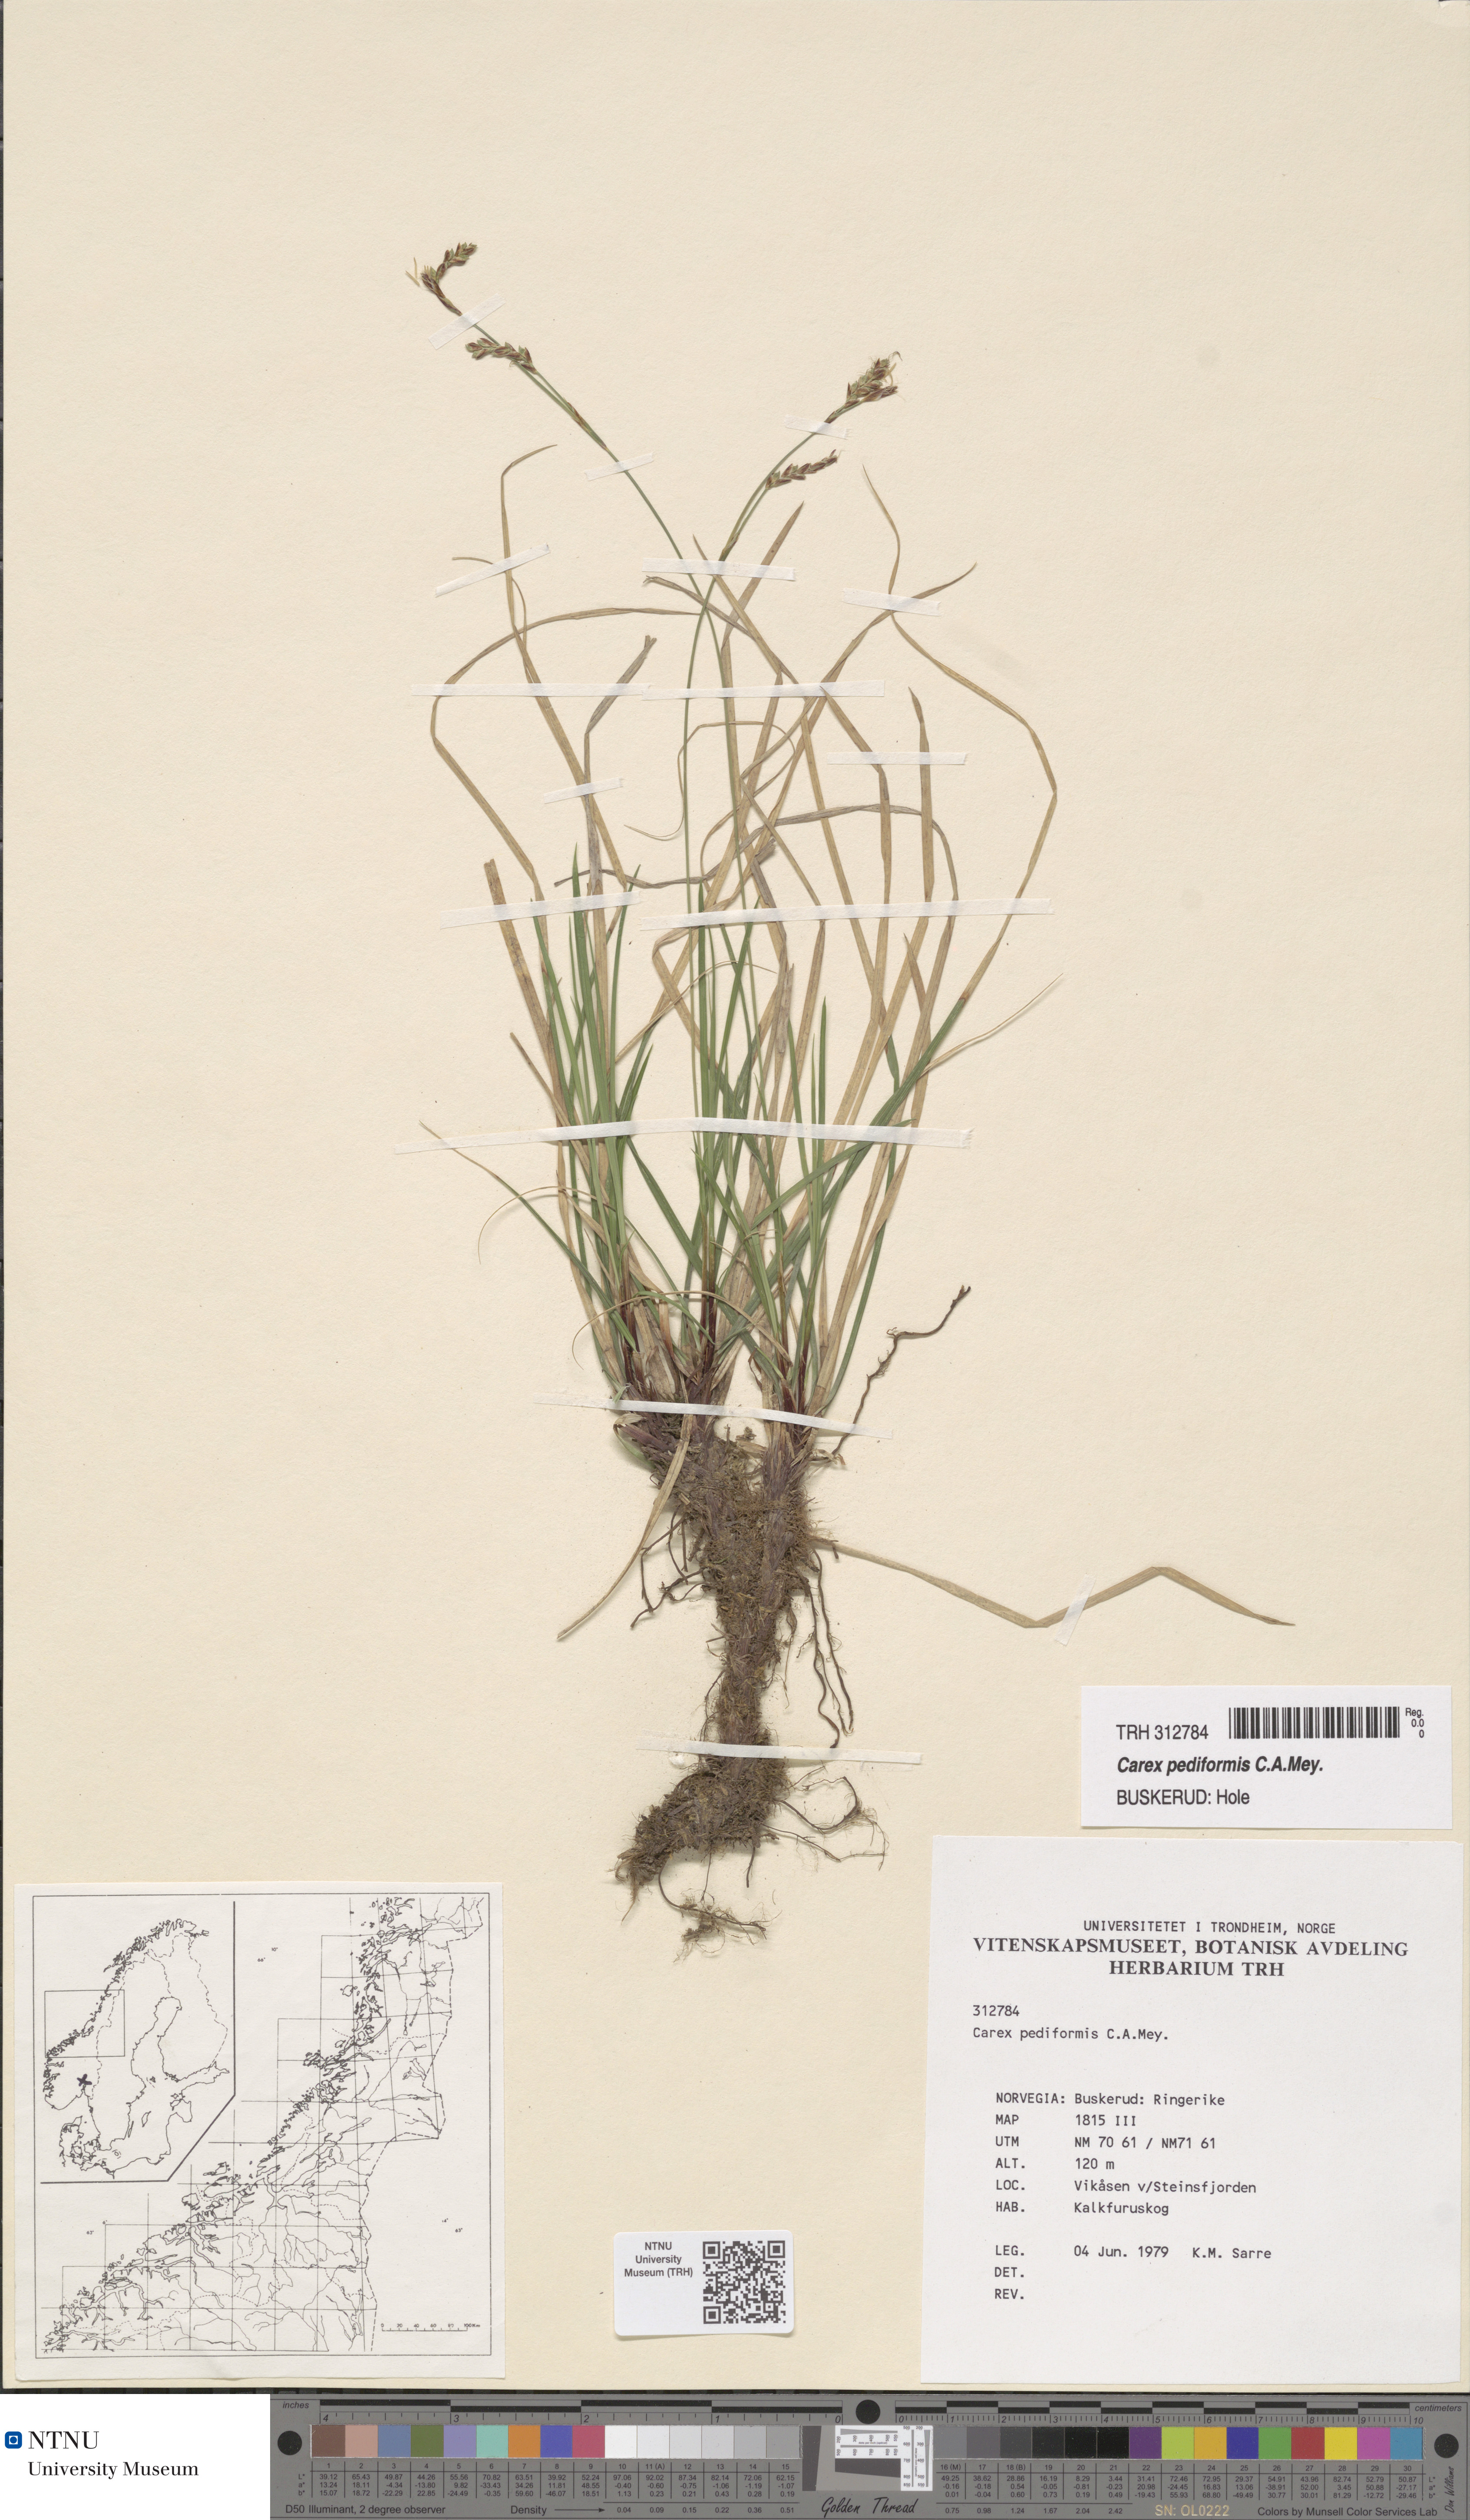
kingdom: Plantae
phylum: Tracheophyta
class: Liliopsida
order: Poales
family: Cyperaceae
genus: Carex
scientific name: Carex rhizina
